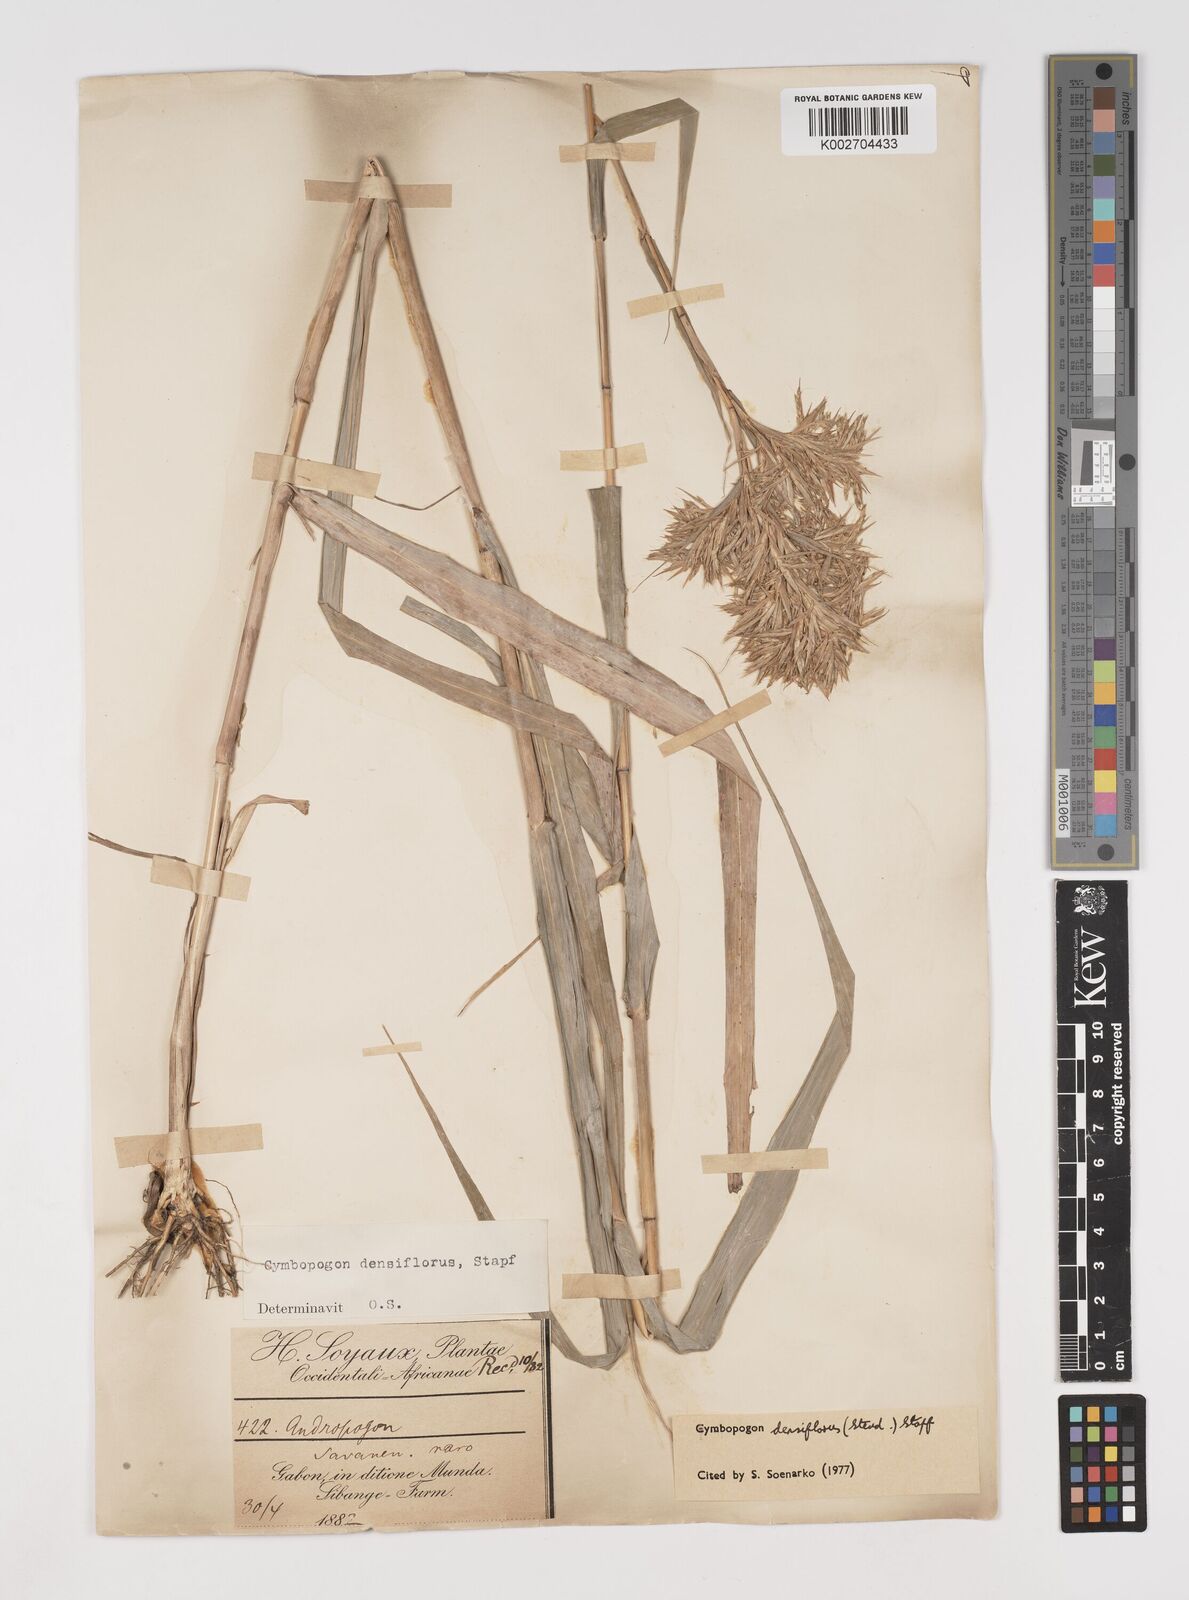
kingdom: Plantae
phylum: Tracheophyta
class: Liliopsida
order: Poales
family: Poaceae
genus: Cymbopogon
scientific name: Cymbopogon densiflorus
